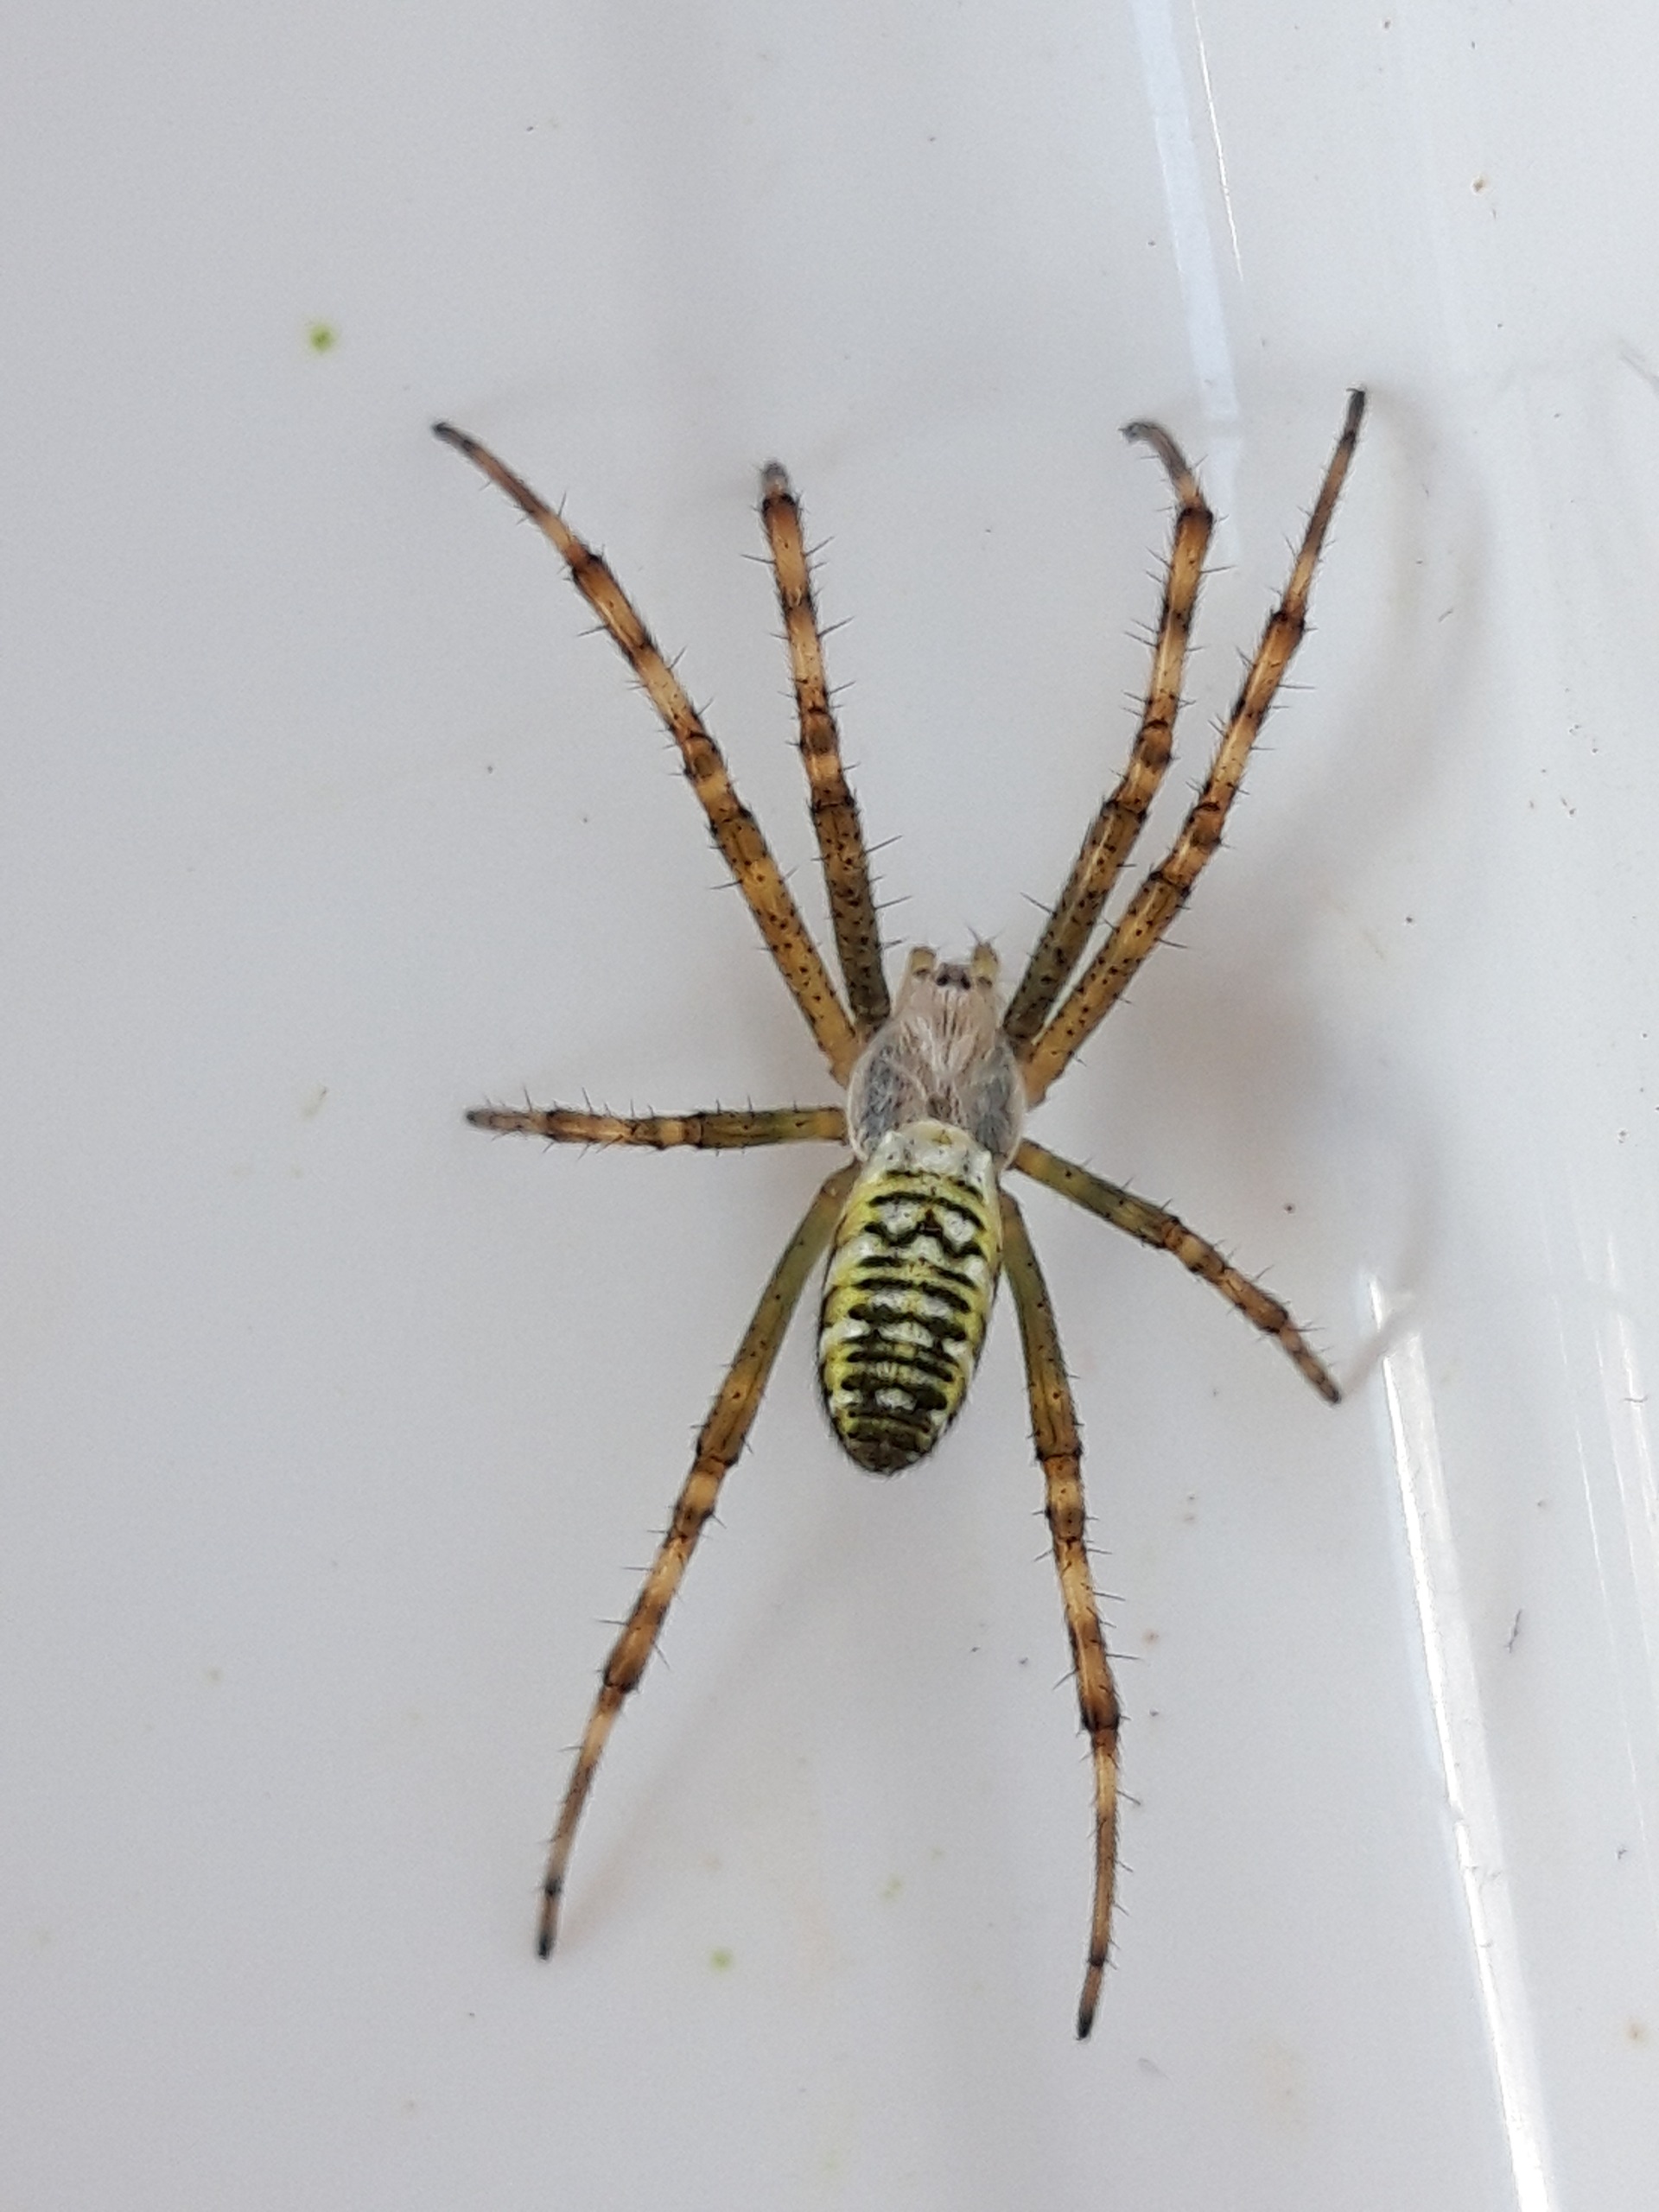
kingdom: Animalia
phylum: Arthropoda
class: Arachnida
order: Araneae
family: Araneidae
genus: Argiope
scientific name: Argiope bruennichi
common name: Hvepseedderkop
